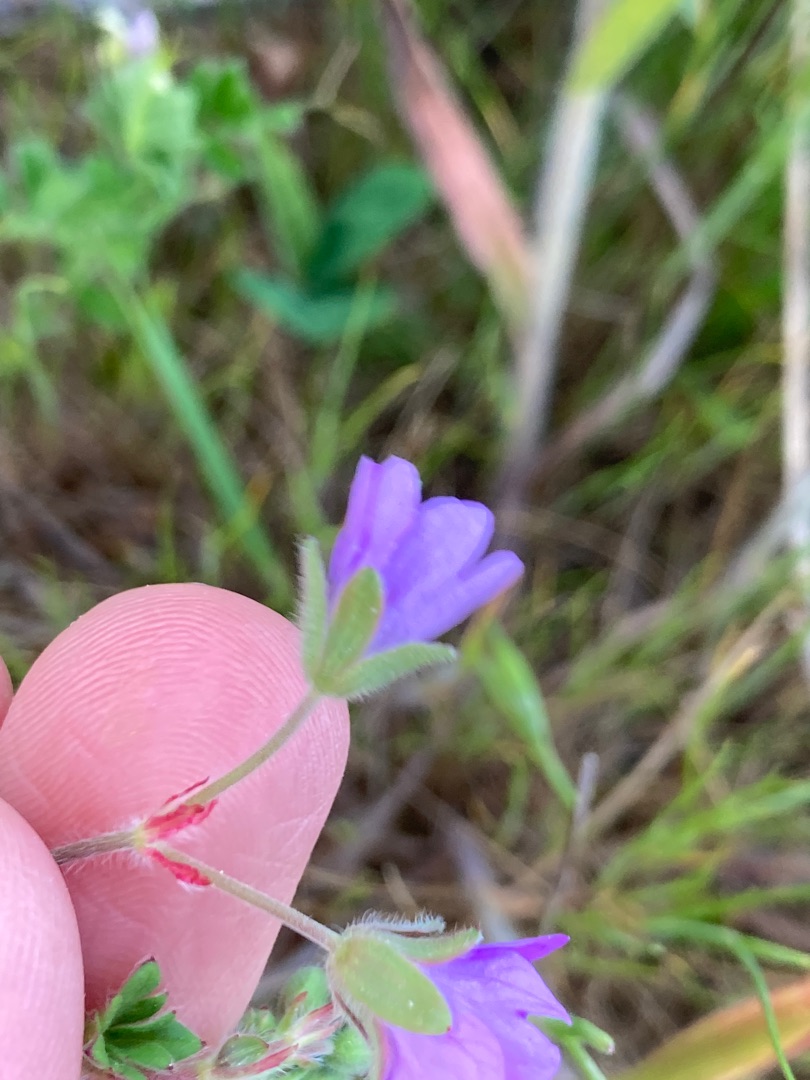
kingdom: Plantae
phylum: Tracheophyta
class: Magnoliopsida
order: Geraniales
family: Geraniaceae
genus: Geranium
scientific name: Geranium pyrenaicum
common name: Pyrenæisk storkenæb
